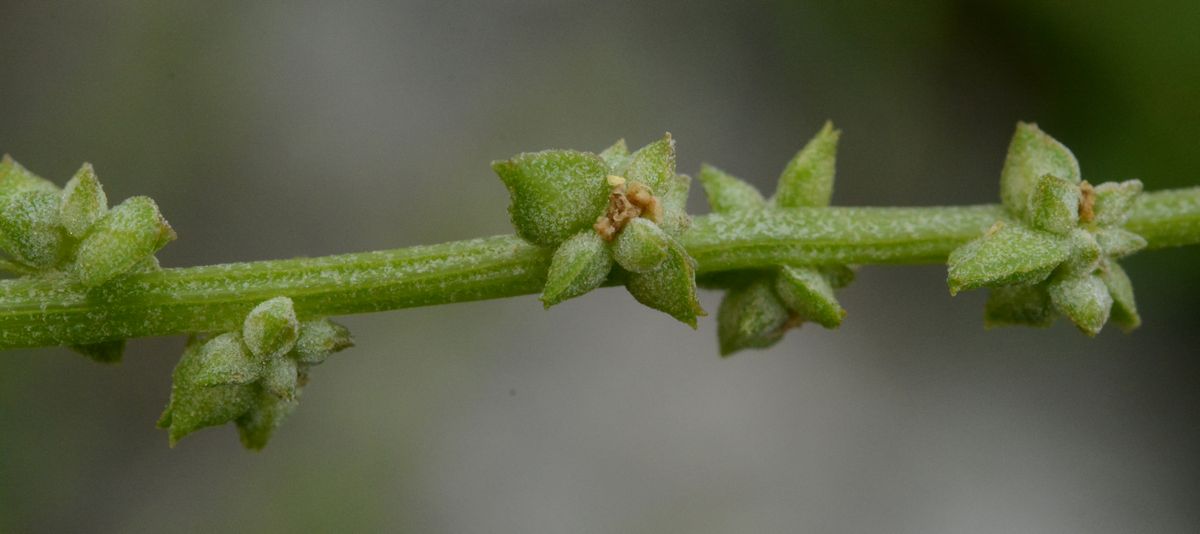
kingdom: Plantae
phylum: Tracheophyta
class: Magnoliopsida
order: Caryophyllales
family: Amaranthaceae
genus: Atriplex
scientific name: Atriplex praecox
